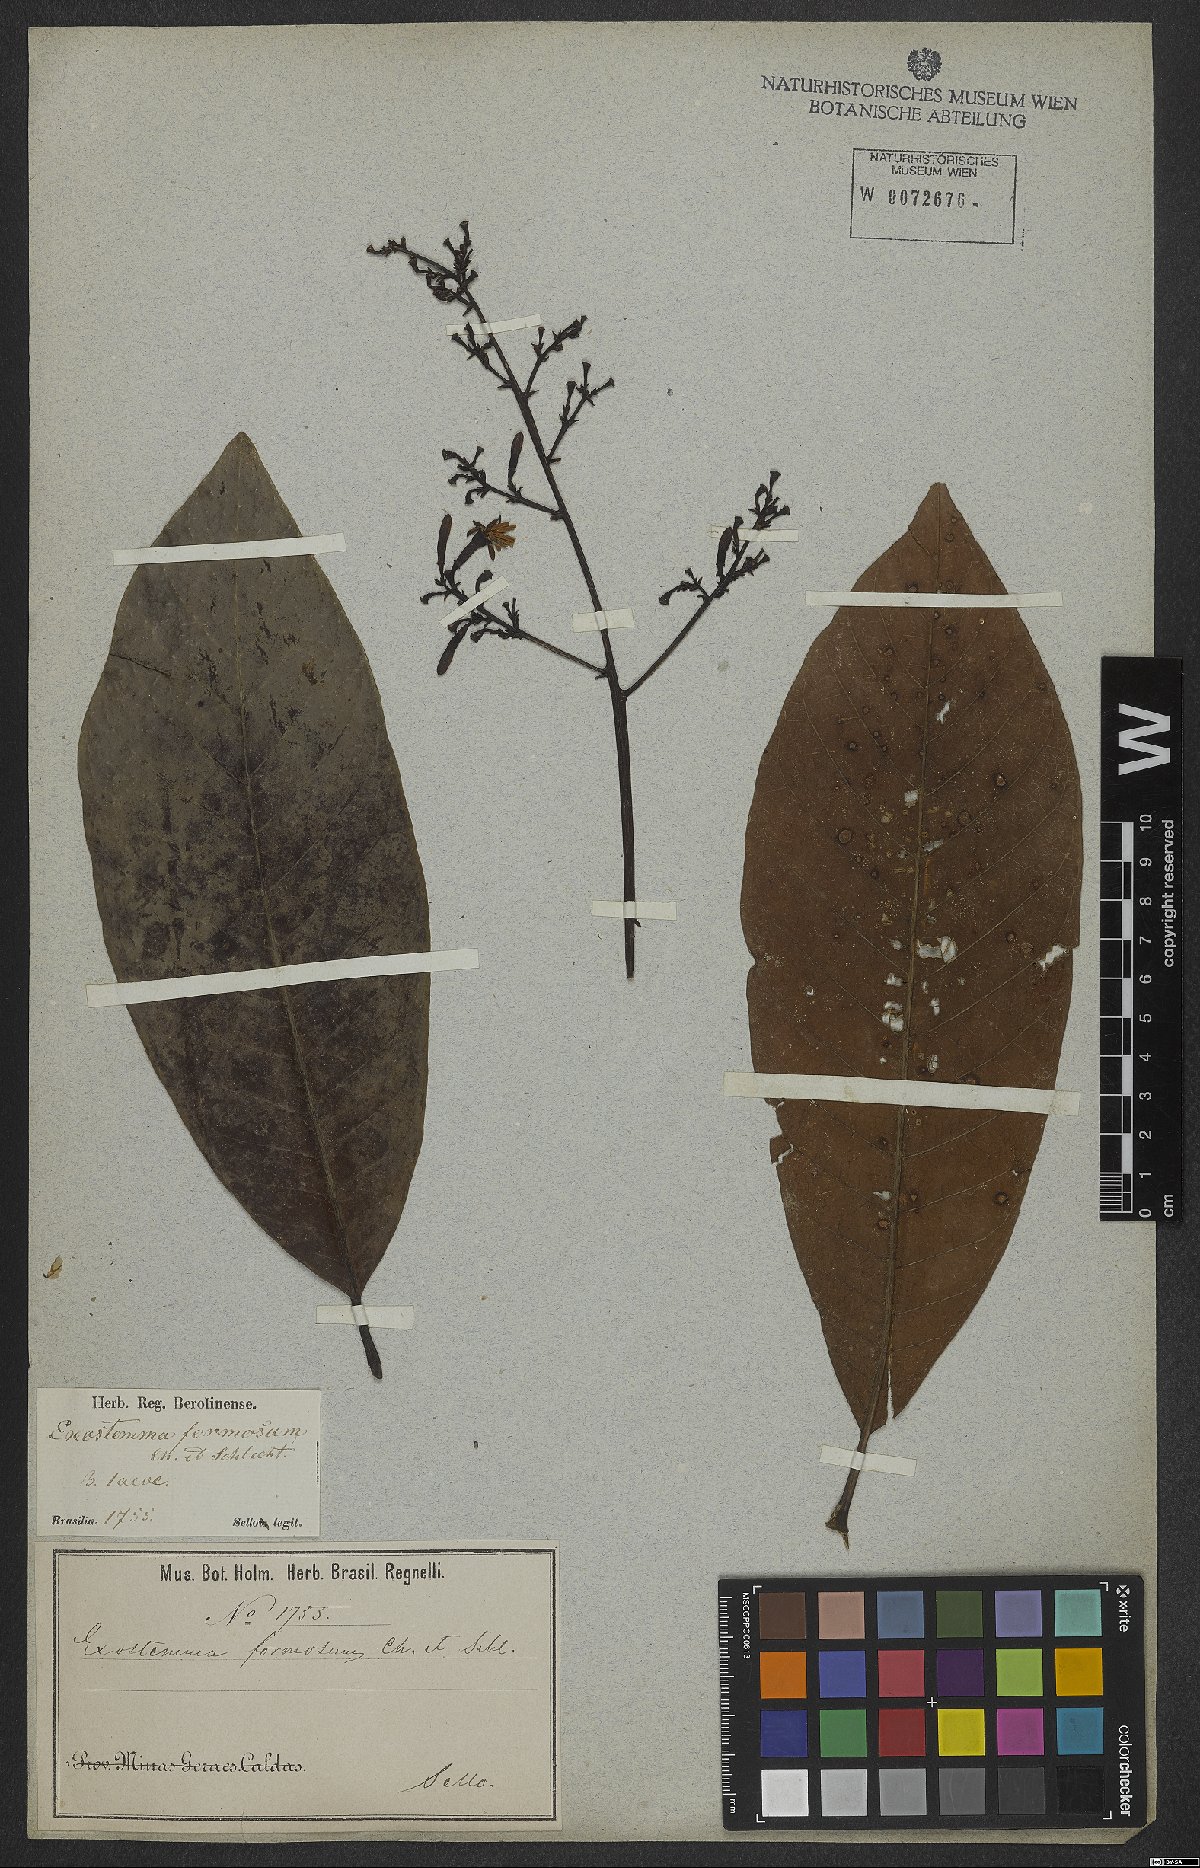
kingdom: Plantae
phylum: Tracheophyta
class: Magnoliopsida
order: Gentianales
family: Rubiaceae
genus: Rustia
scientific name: Rustia formosa
